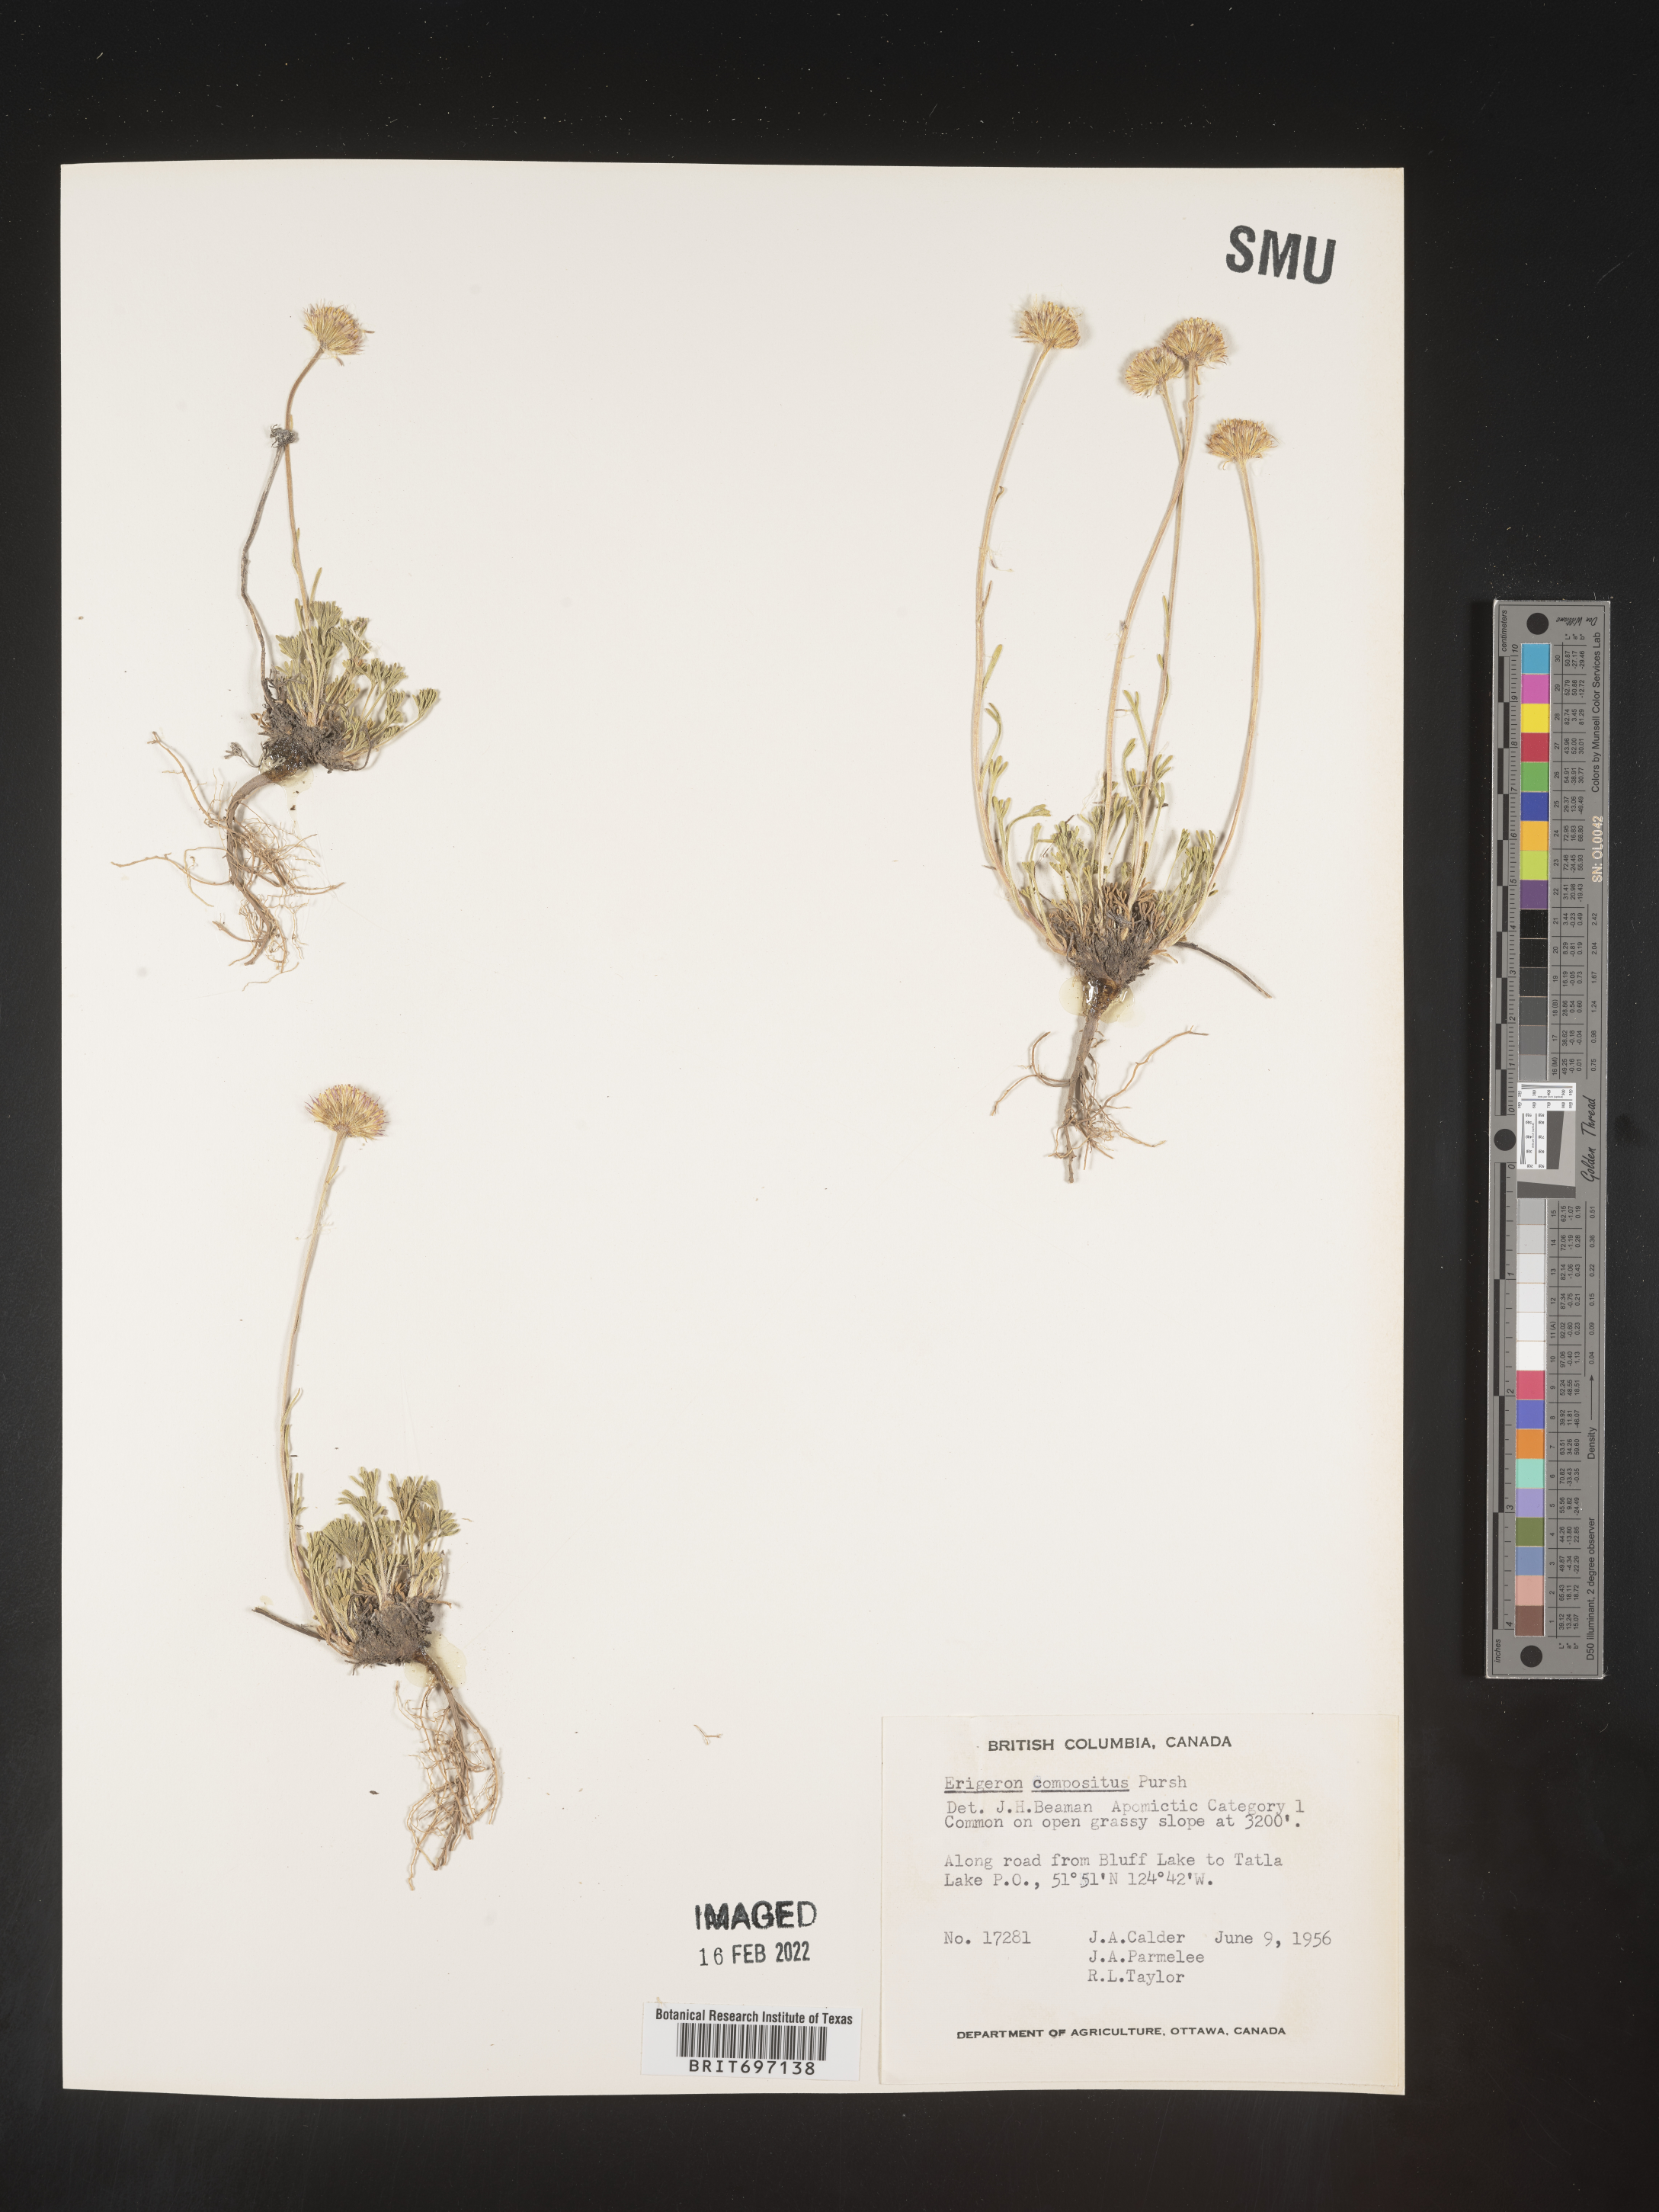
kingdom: Plantae
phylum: Tracheophyta
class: Magnoliopsida
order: Asterales
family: Asteraceae
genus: Erigeron
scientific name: Erigeron compositus
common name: Dwarf mountain fleabane
